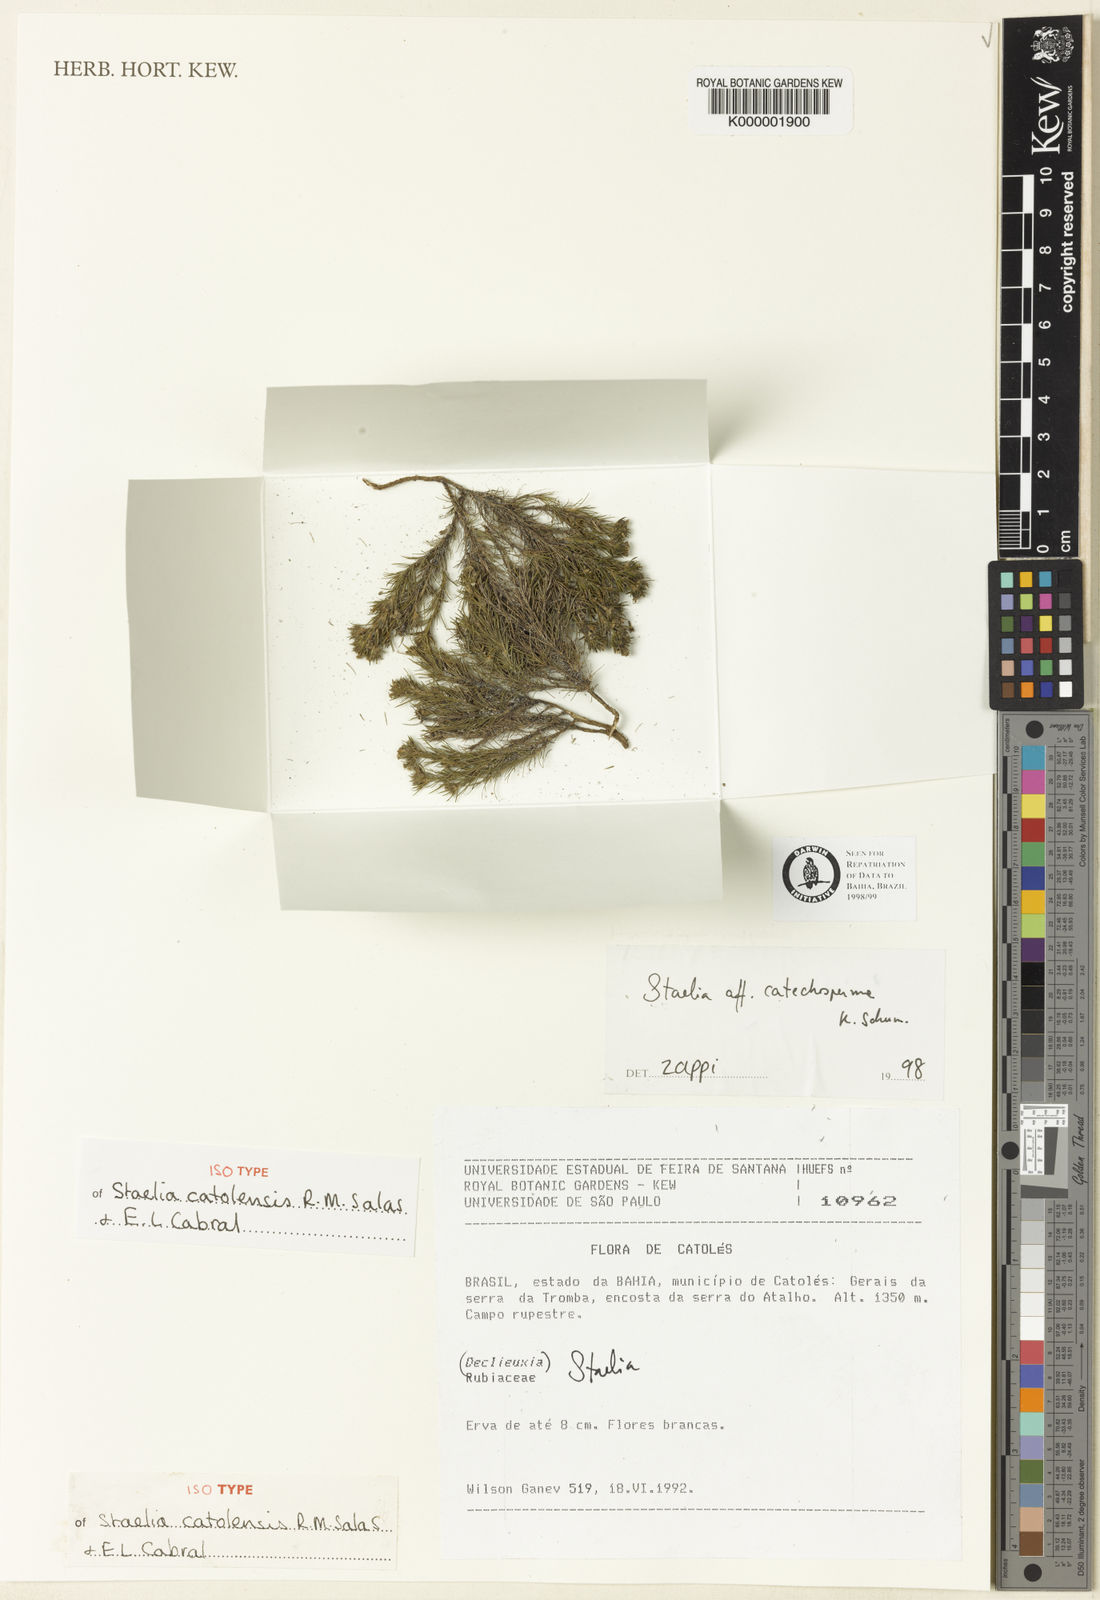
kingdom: Plantae
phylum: Tracheophyta
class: Magnoliopsida
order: Gentianales
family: Rubiaceae
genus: Staelia
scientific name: Staelia catolensis
